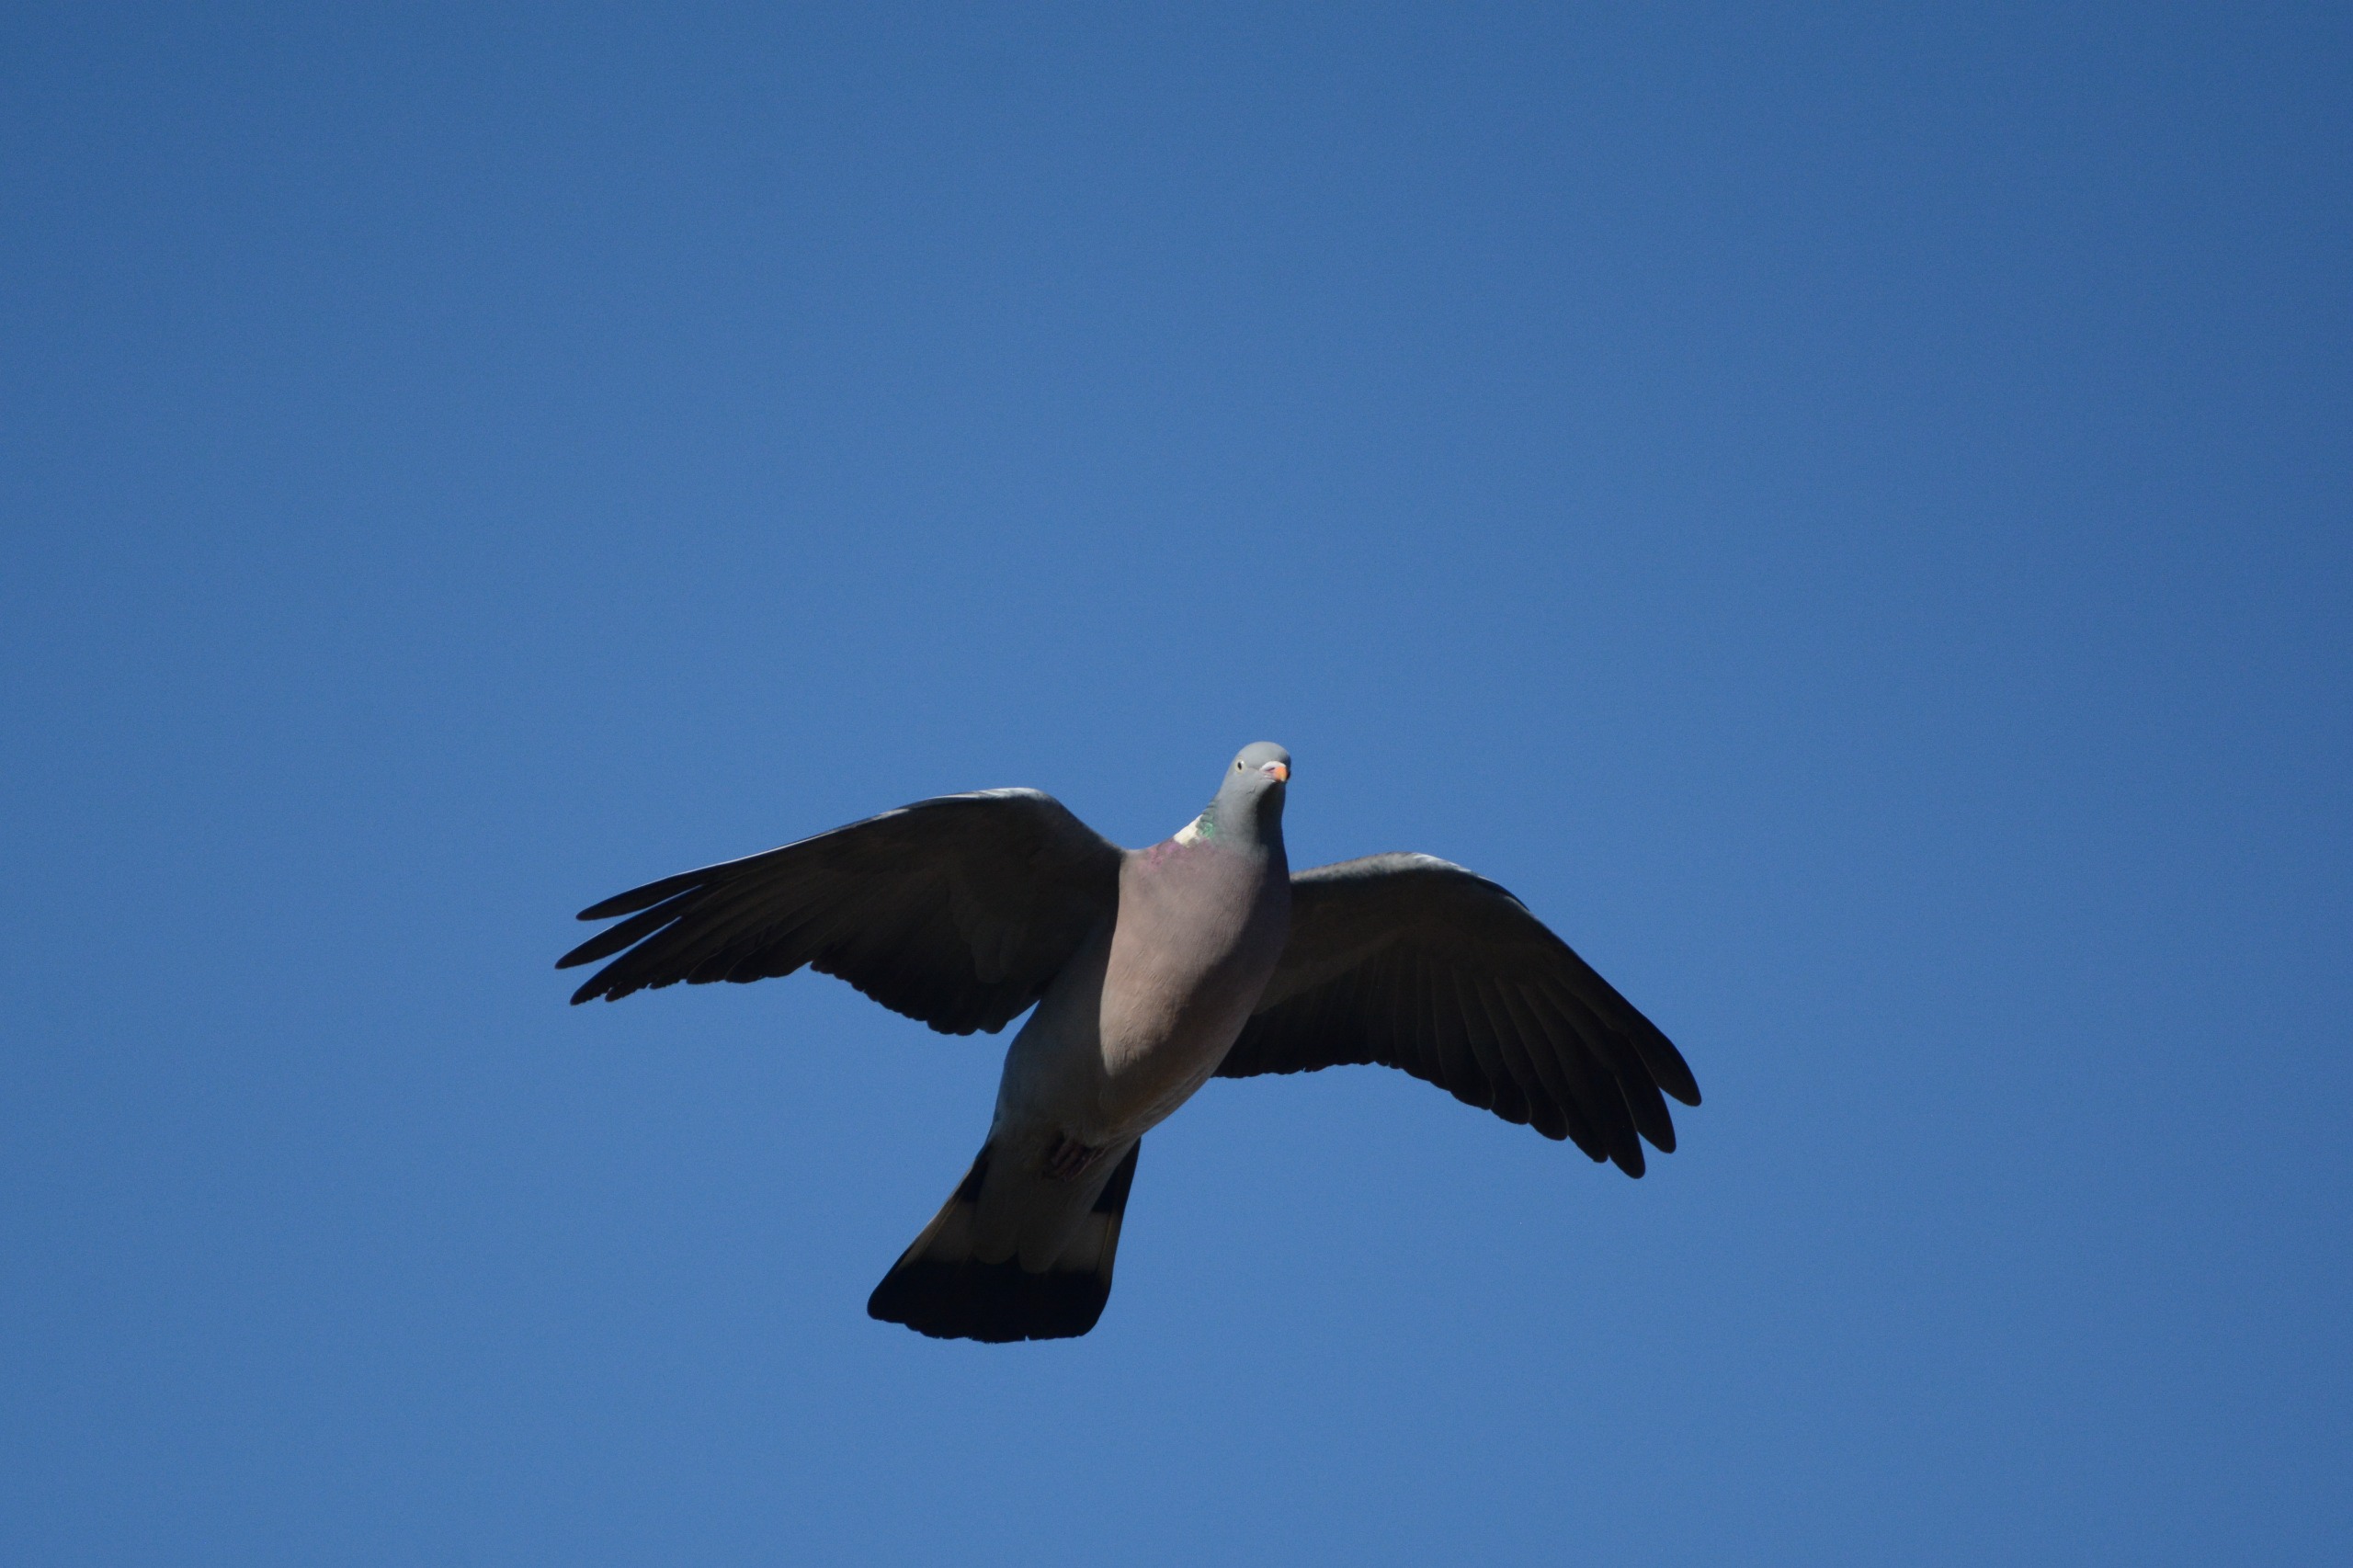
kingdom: Animalia
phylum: Chordata
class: Aves
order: Columbiformes
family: Columbidae
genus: Columba
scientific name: Columba palumbus
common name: Ringdue
